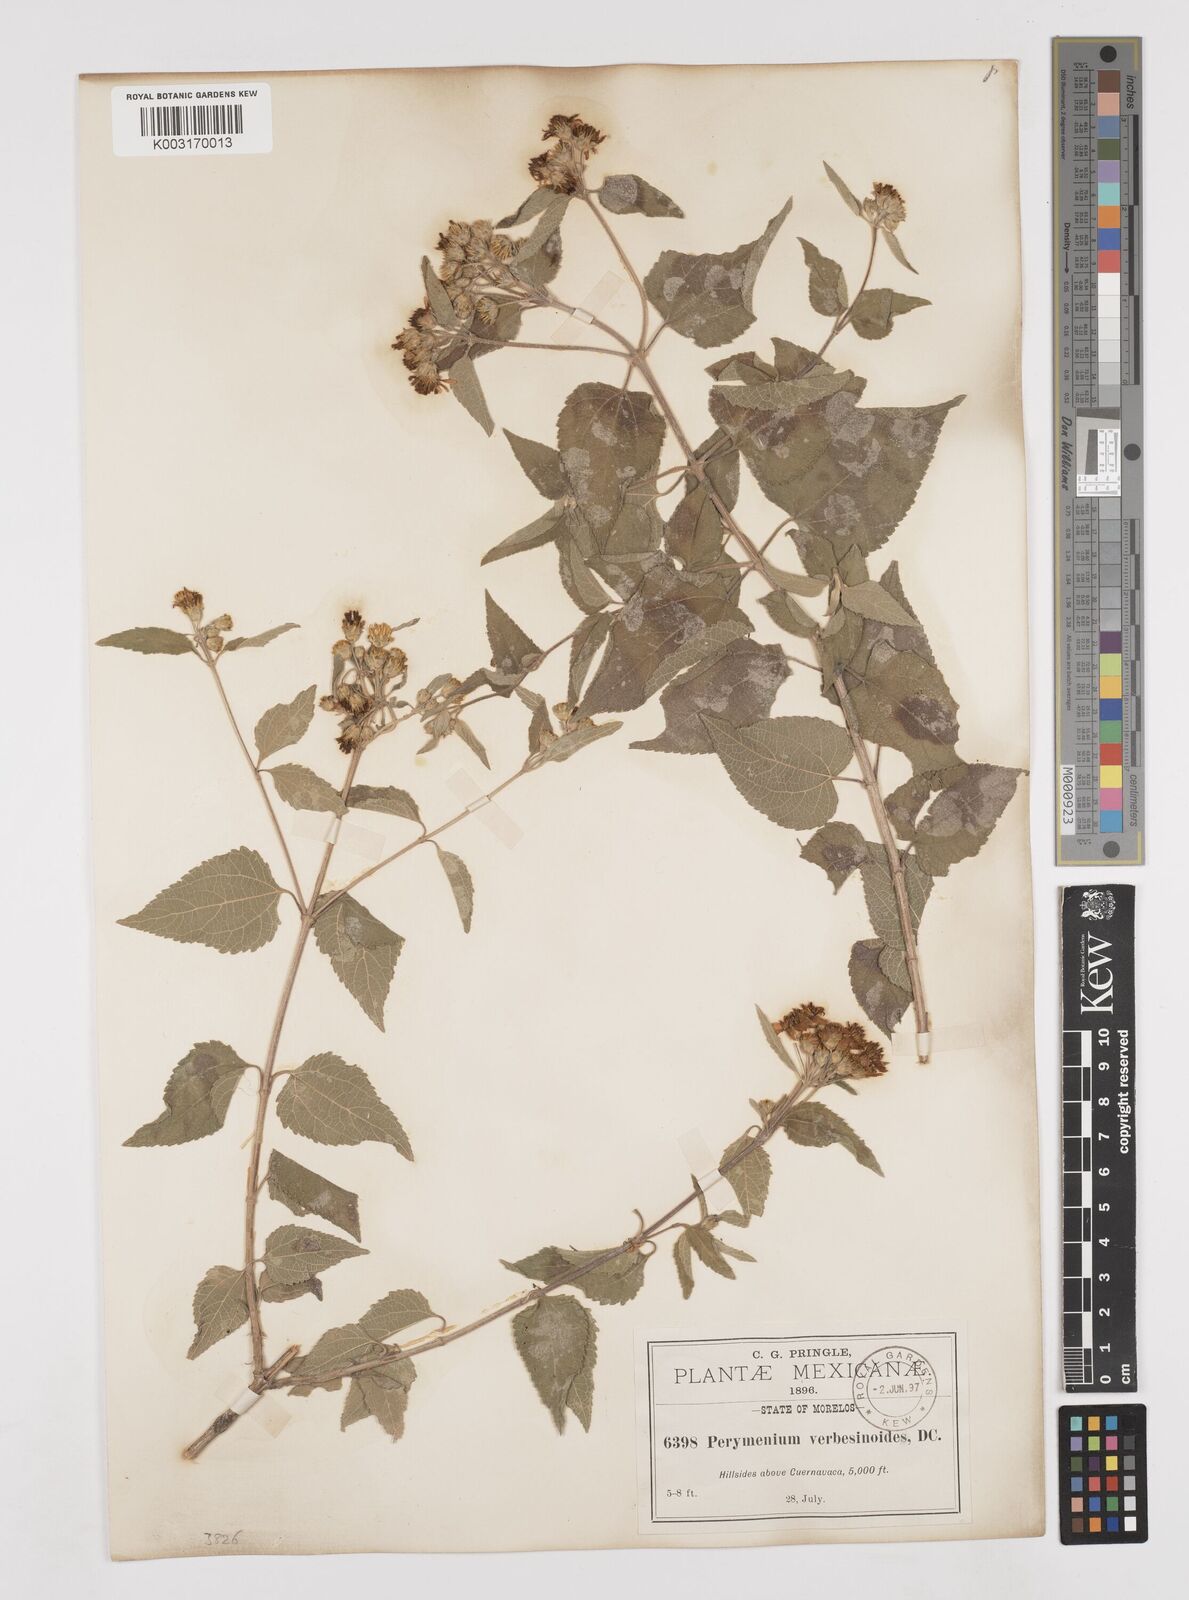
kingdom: Plantae
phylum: Tracheophyta
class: Magnoliopsida
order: Asterales
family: Asteraceae
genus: Perymenium
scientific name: Perymenium mendezii
